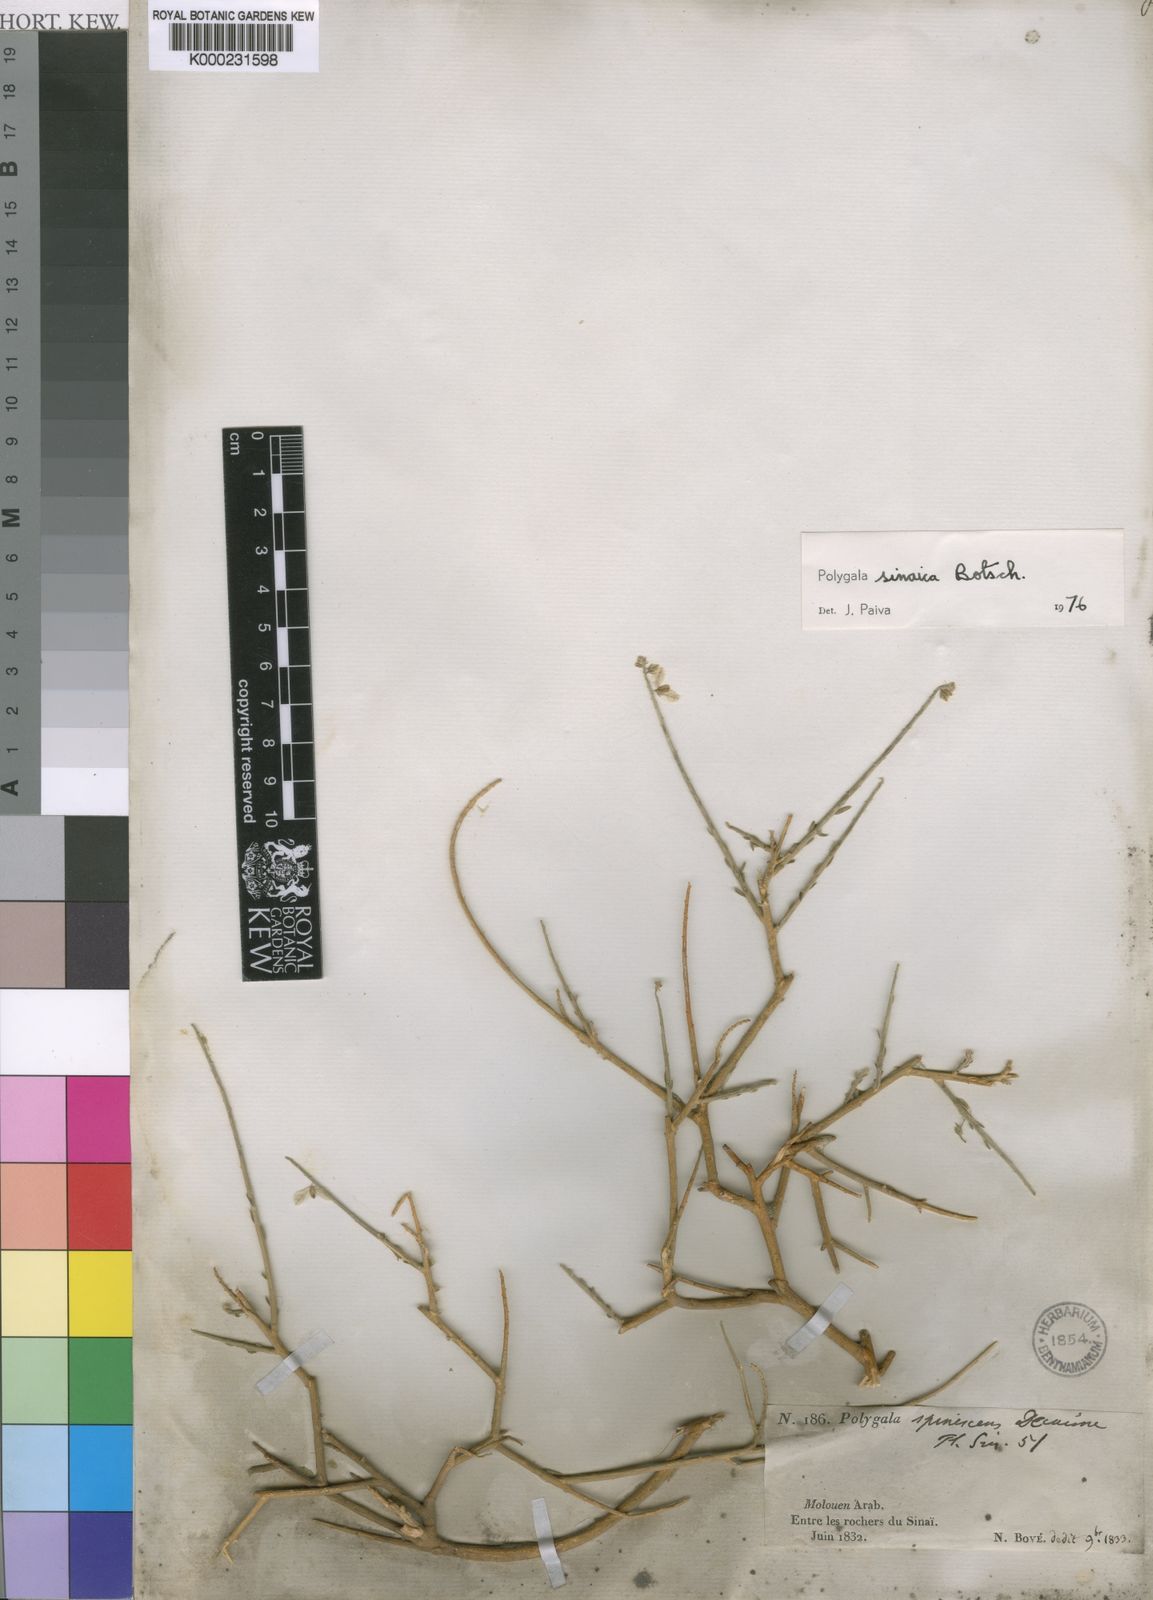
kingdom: Plantae
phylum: Tracheophyta
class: Magnoliopsida
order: Fabales
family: Polygalaceae
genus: Polygala
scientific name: Polygala sinaica
